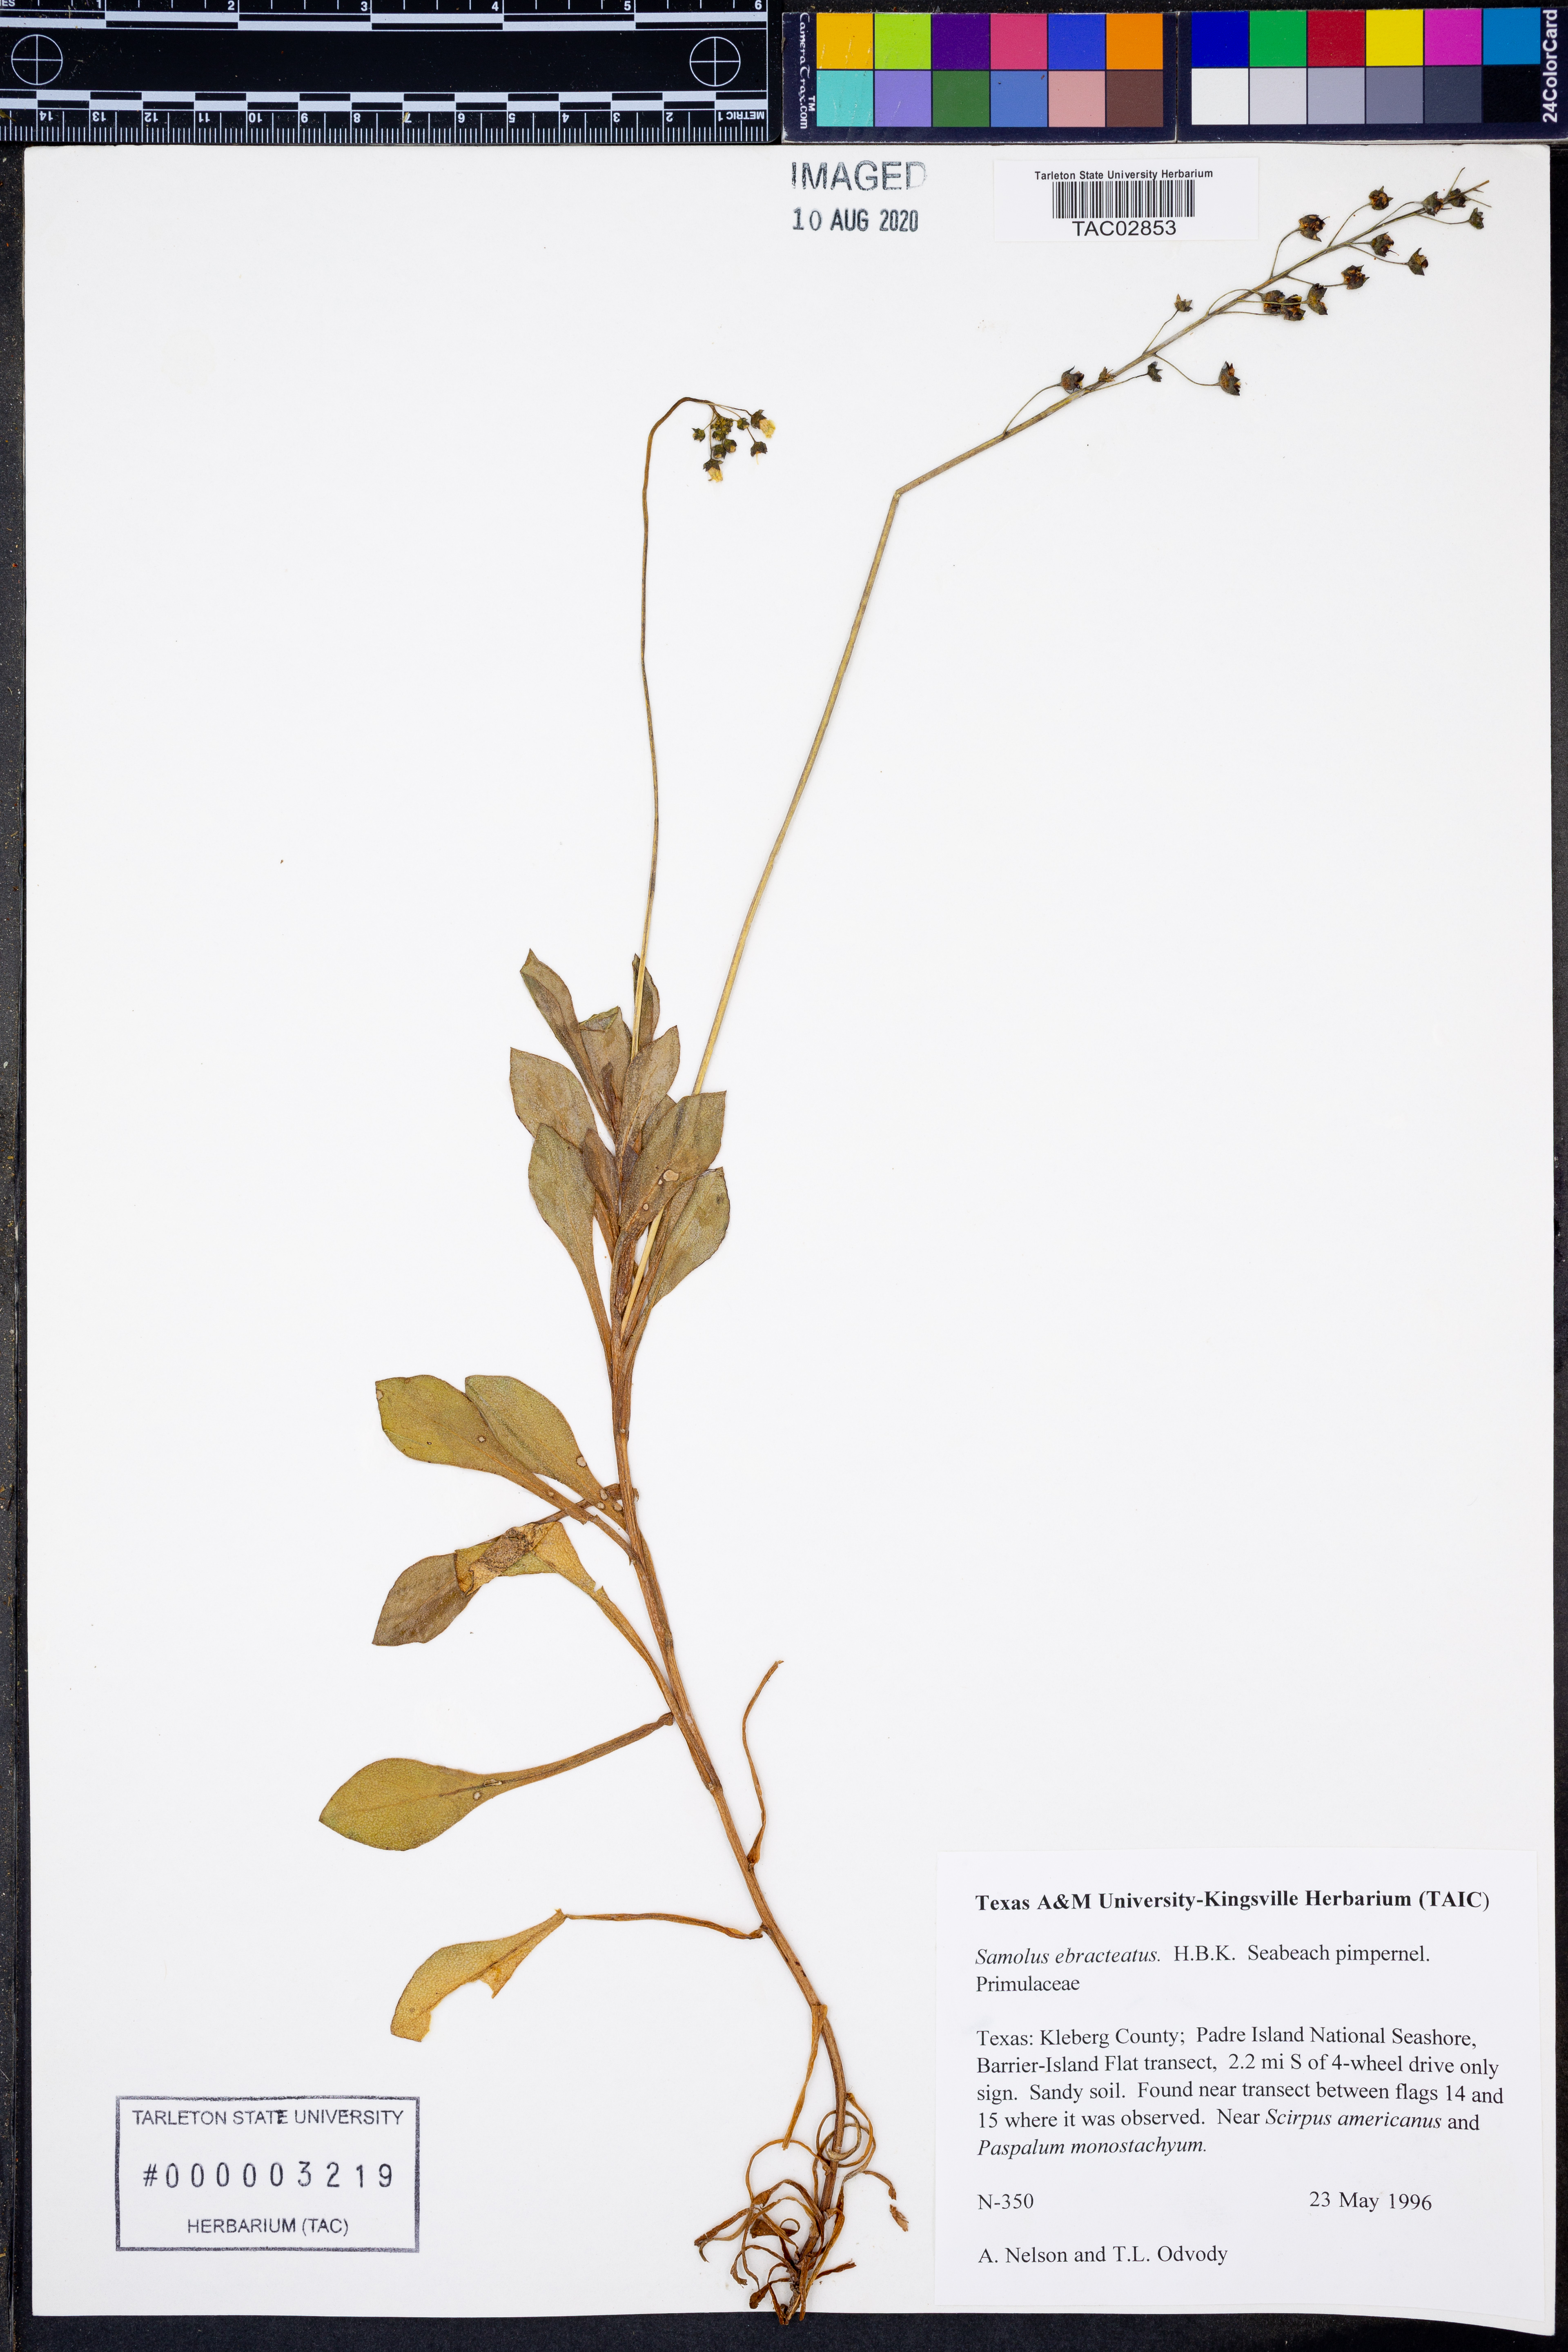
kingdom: Plantae
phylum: Tracheophyta
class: Magnoliopsida
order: Ericales
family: Primulaceae
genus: Samolus
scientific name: Samolus ebracteatus
